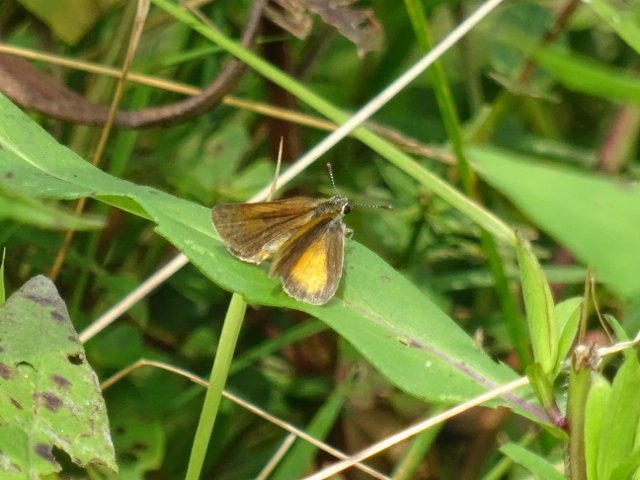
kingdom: Animalia
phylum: Arthropoda
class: Insecta
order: Lepidoptera
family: Hesperiidae
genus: Ancyloxypha
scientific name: Ancyloxypha numitor
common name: Least Skipper
